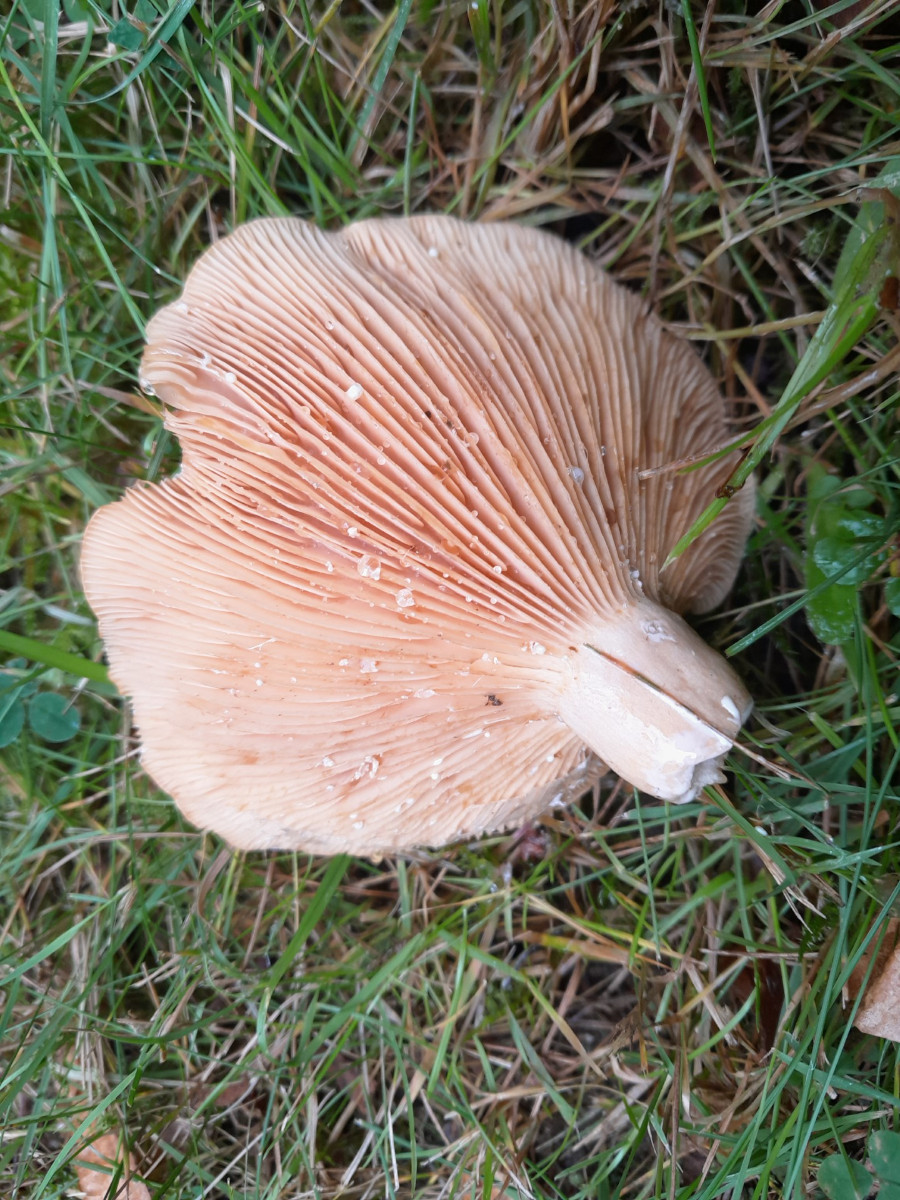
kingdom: Fungi
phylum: Basidiomycota
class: Agaricomycetes
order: Russulales
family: Russulaceae
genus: Lactarius
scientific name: Lactarius
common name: mælkehat
